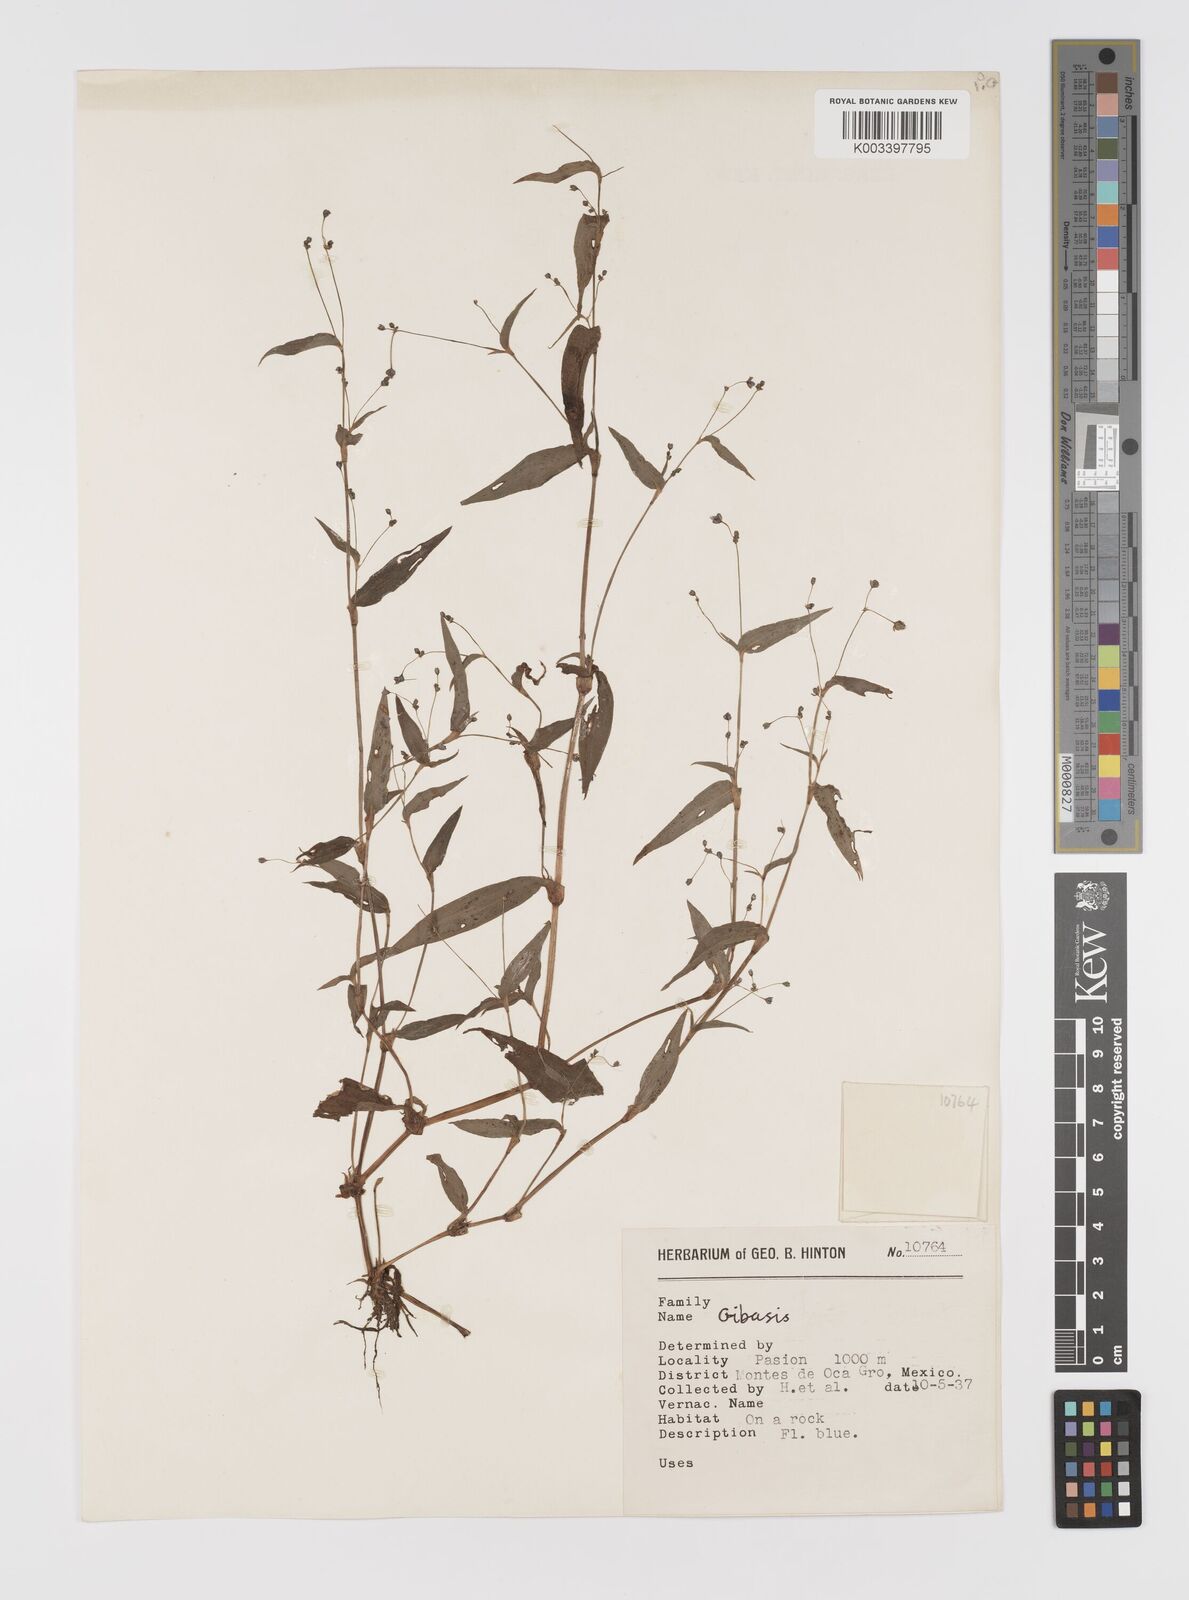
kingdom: Plantae
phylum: Tracheophyta
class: Liliopsida
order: Commelinales
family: Commelinaceae
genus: Gibasis
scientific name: Gibasis triflora
